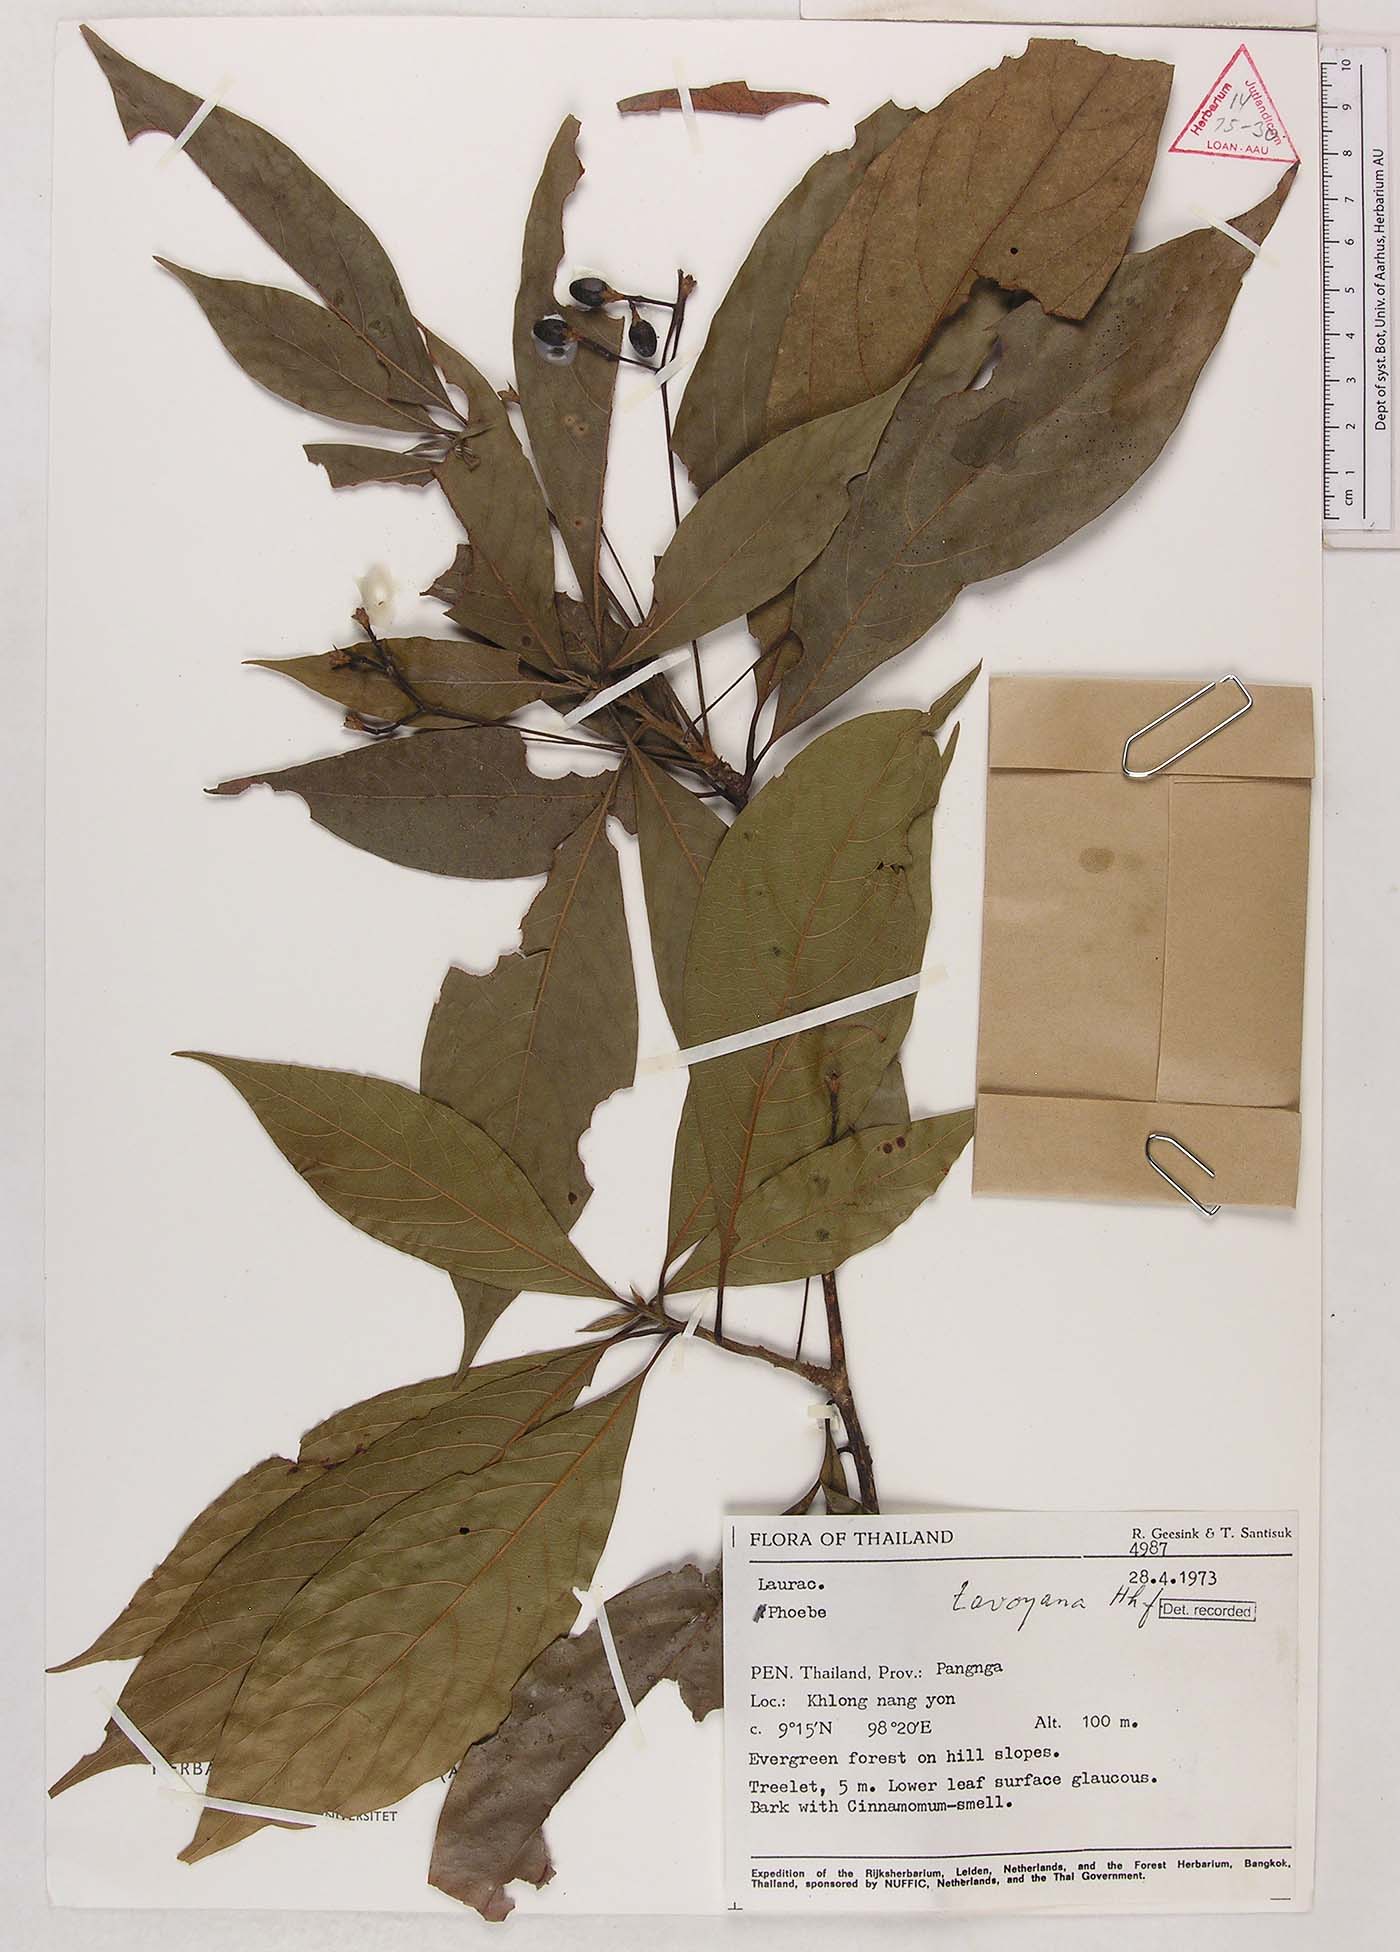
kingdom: Plantae
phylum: Tracheophyta
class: Magnoliopsida
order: Laurales
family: Lauraceae
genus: Phoebe
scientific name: Phoebe tavoyana
